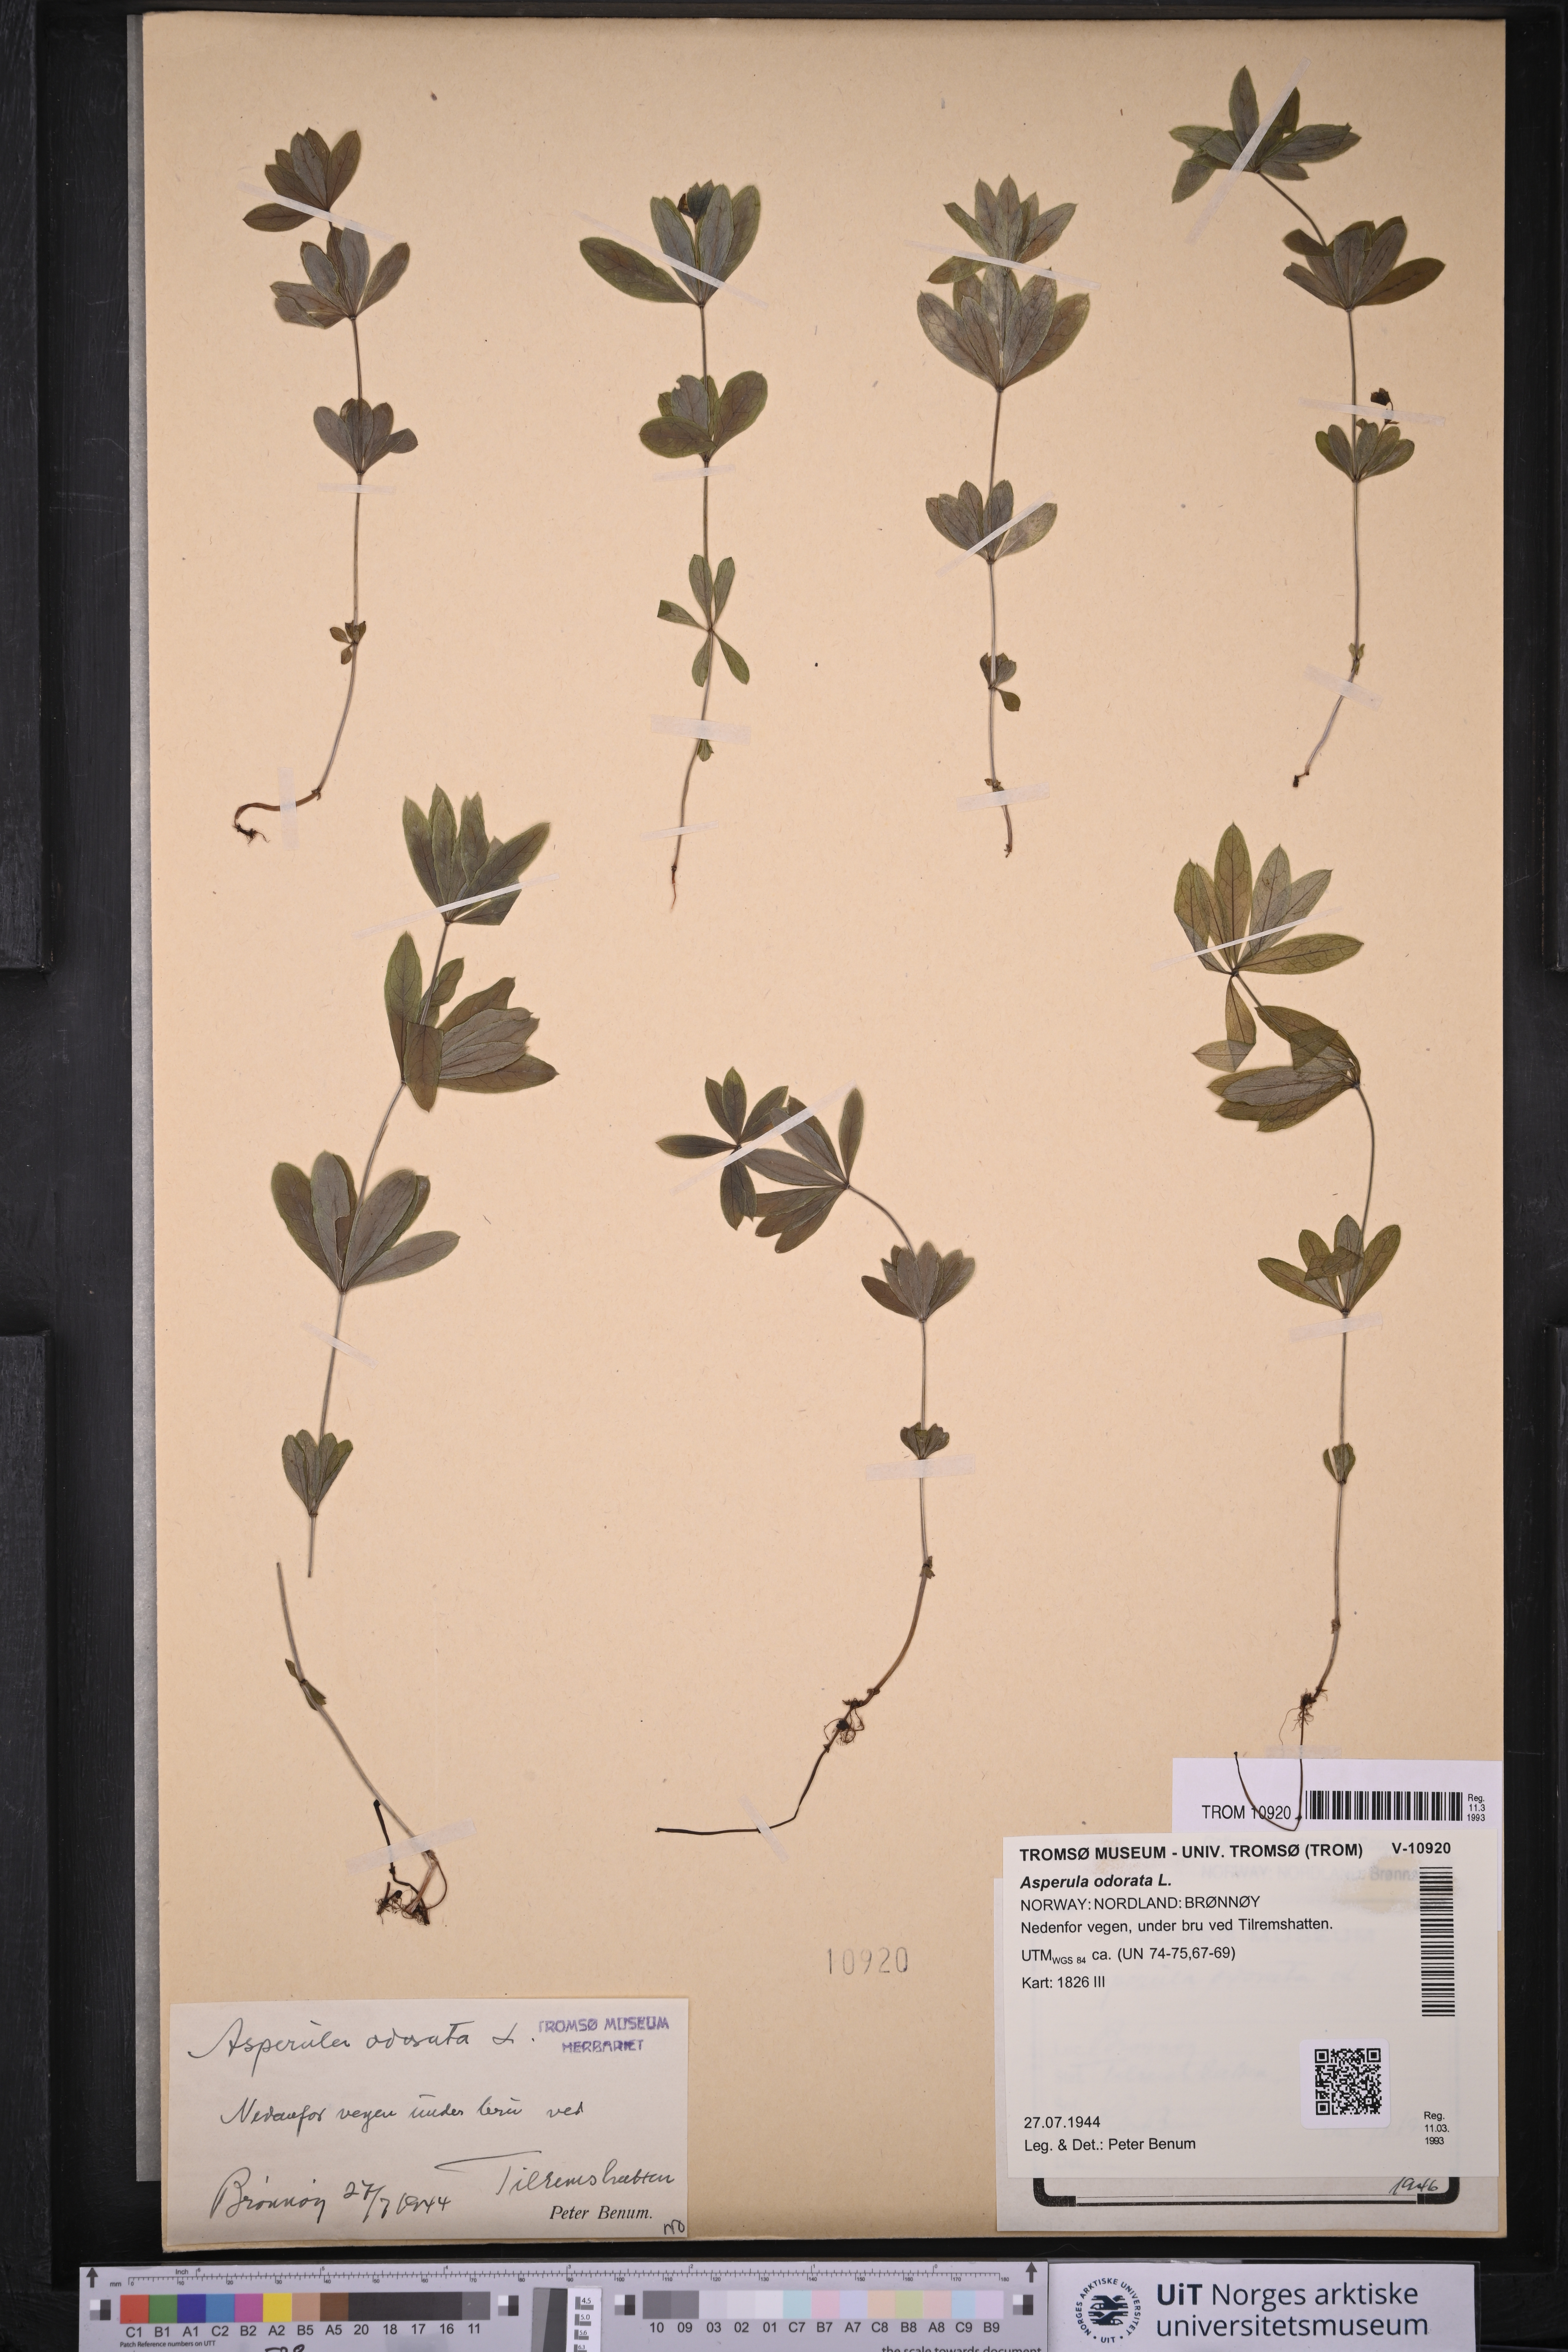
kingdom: Plantae
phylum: Tracheophyta
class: Magnoliopsida
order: Gentianales
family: Rubiaceae
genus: Galium
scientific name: Galium odoratum
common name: Sweet woodruff
